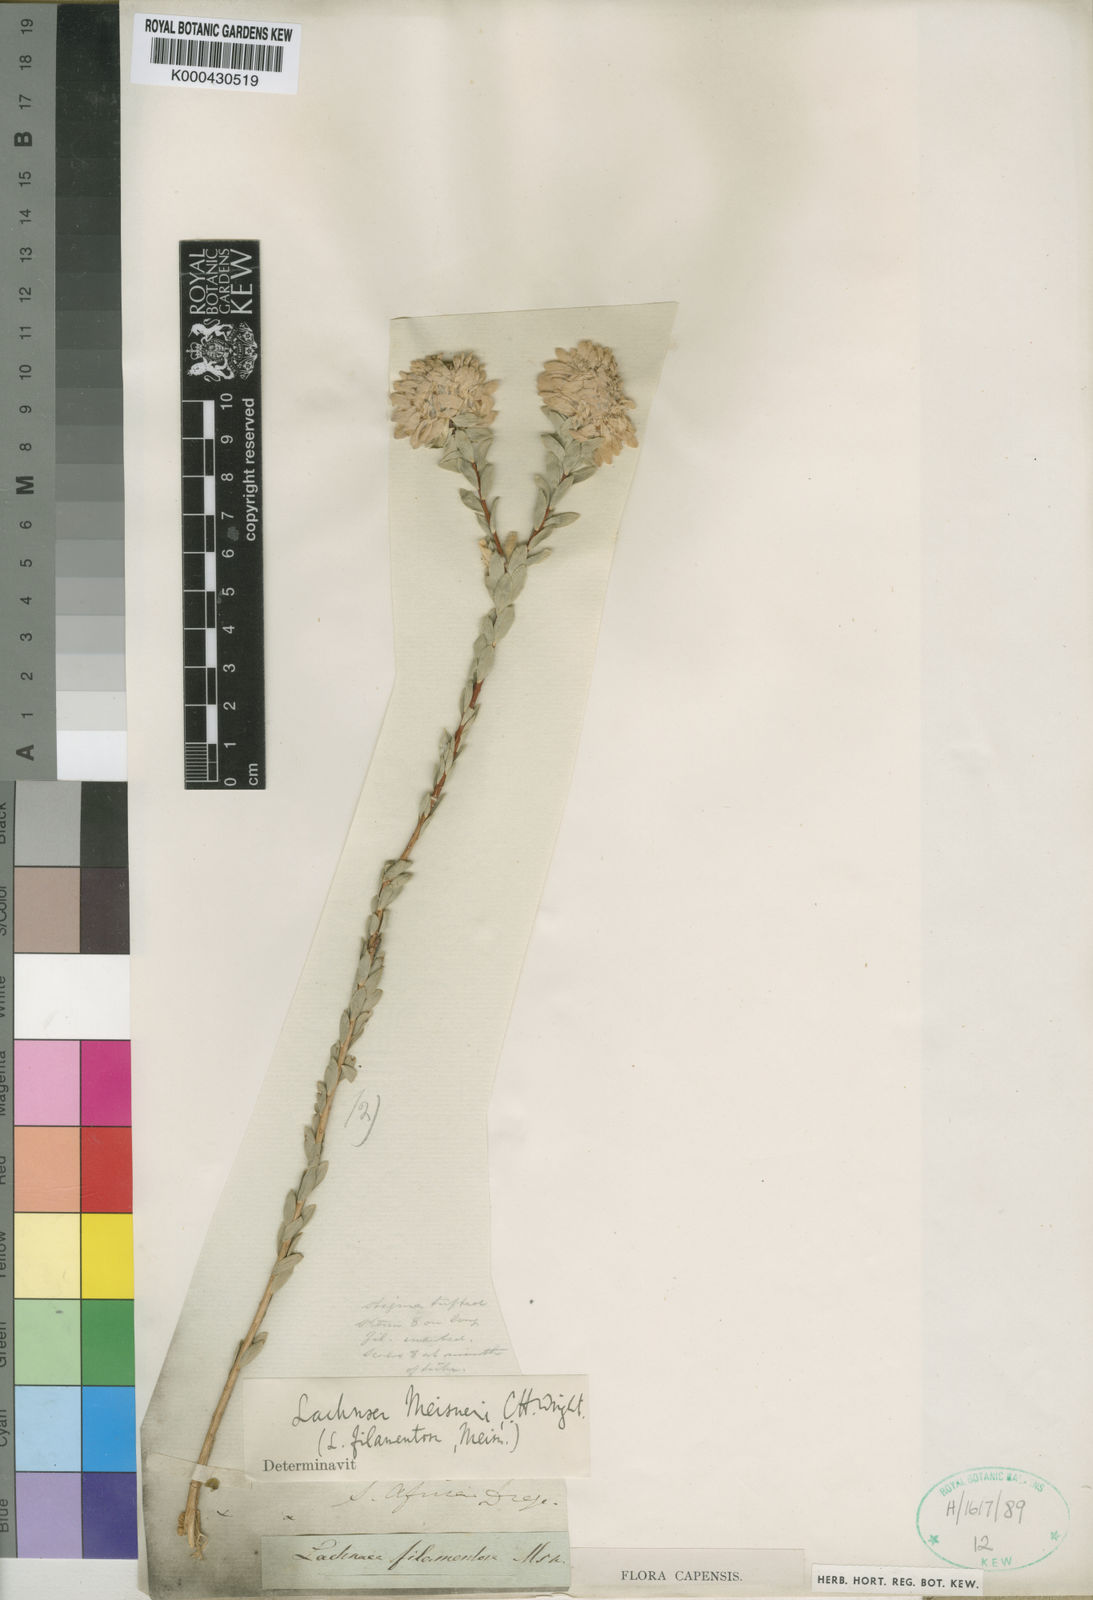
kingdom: Plantae
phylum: Tracheophyta
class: Magnoliopsida
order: Malvales
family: Thymelaeaceae
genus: Lachnaea
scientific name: Lachnaea filamentosa
